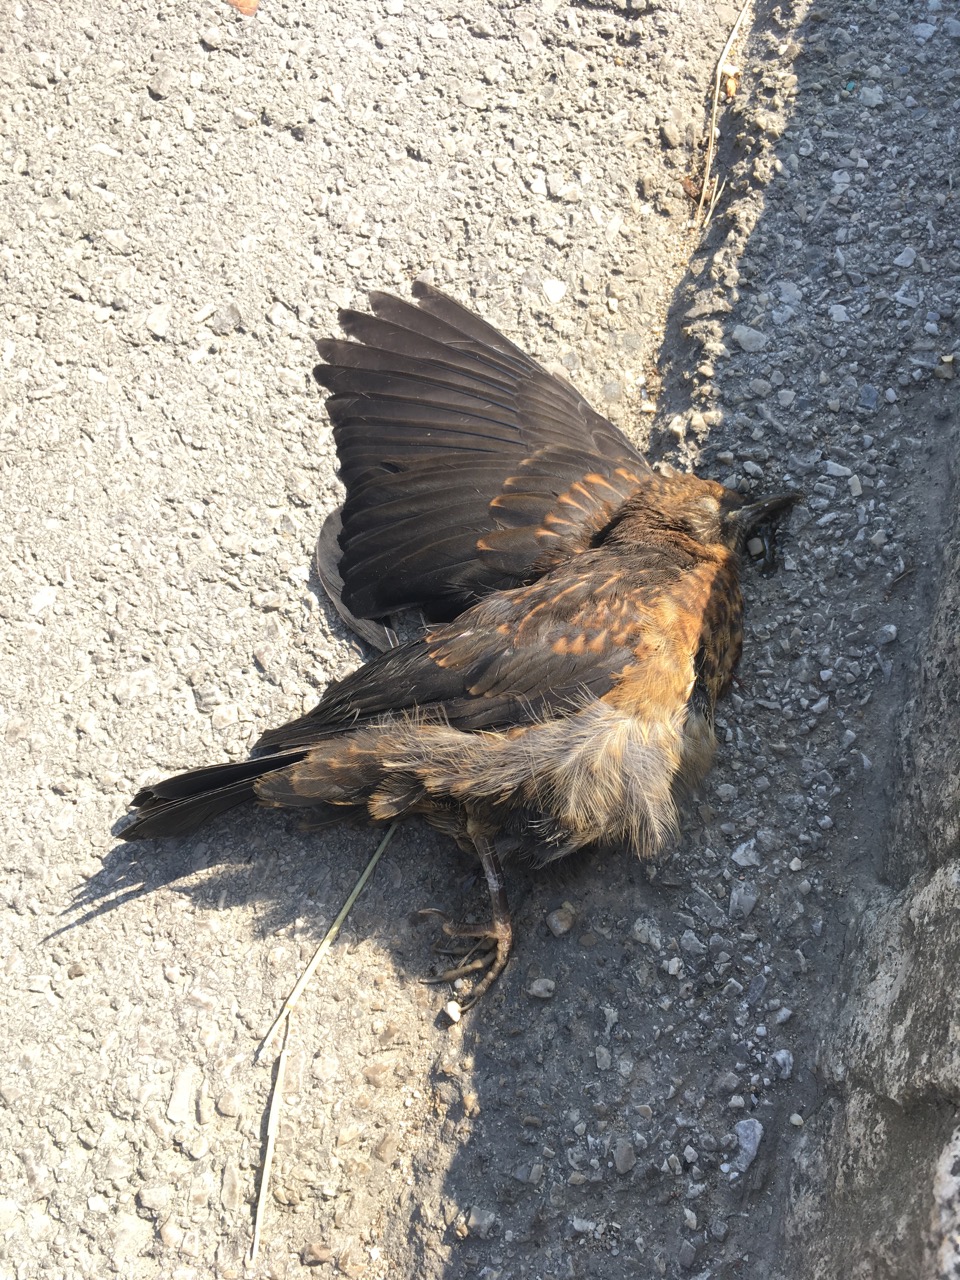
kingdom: Animalia
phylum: Chordata
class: Aves
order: Passeriformes
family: Turdidae
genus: Turdus
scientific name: Turdus merula
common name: Common blackbird
